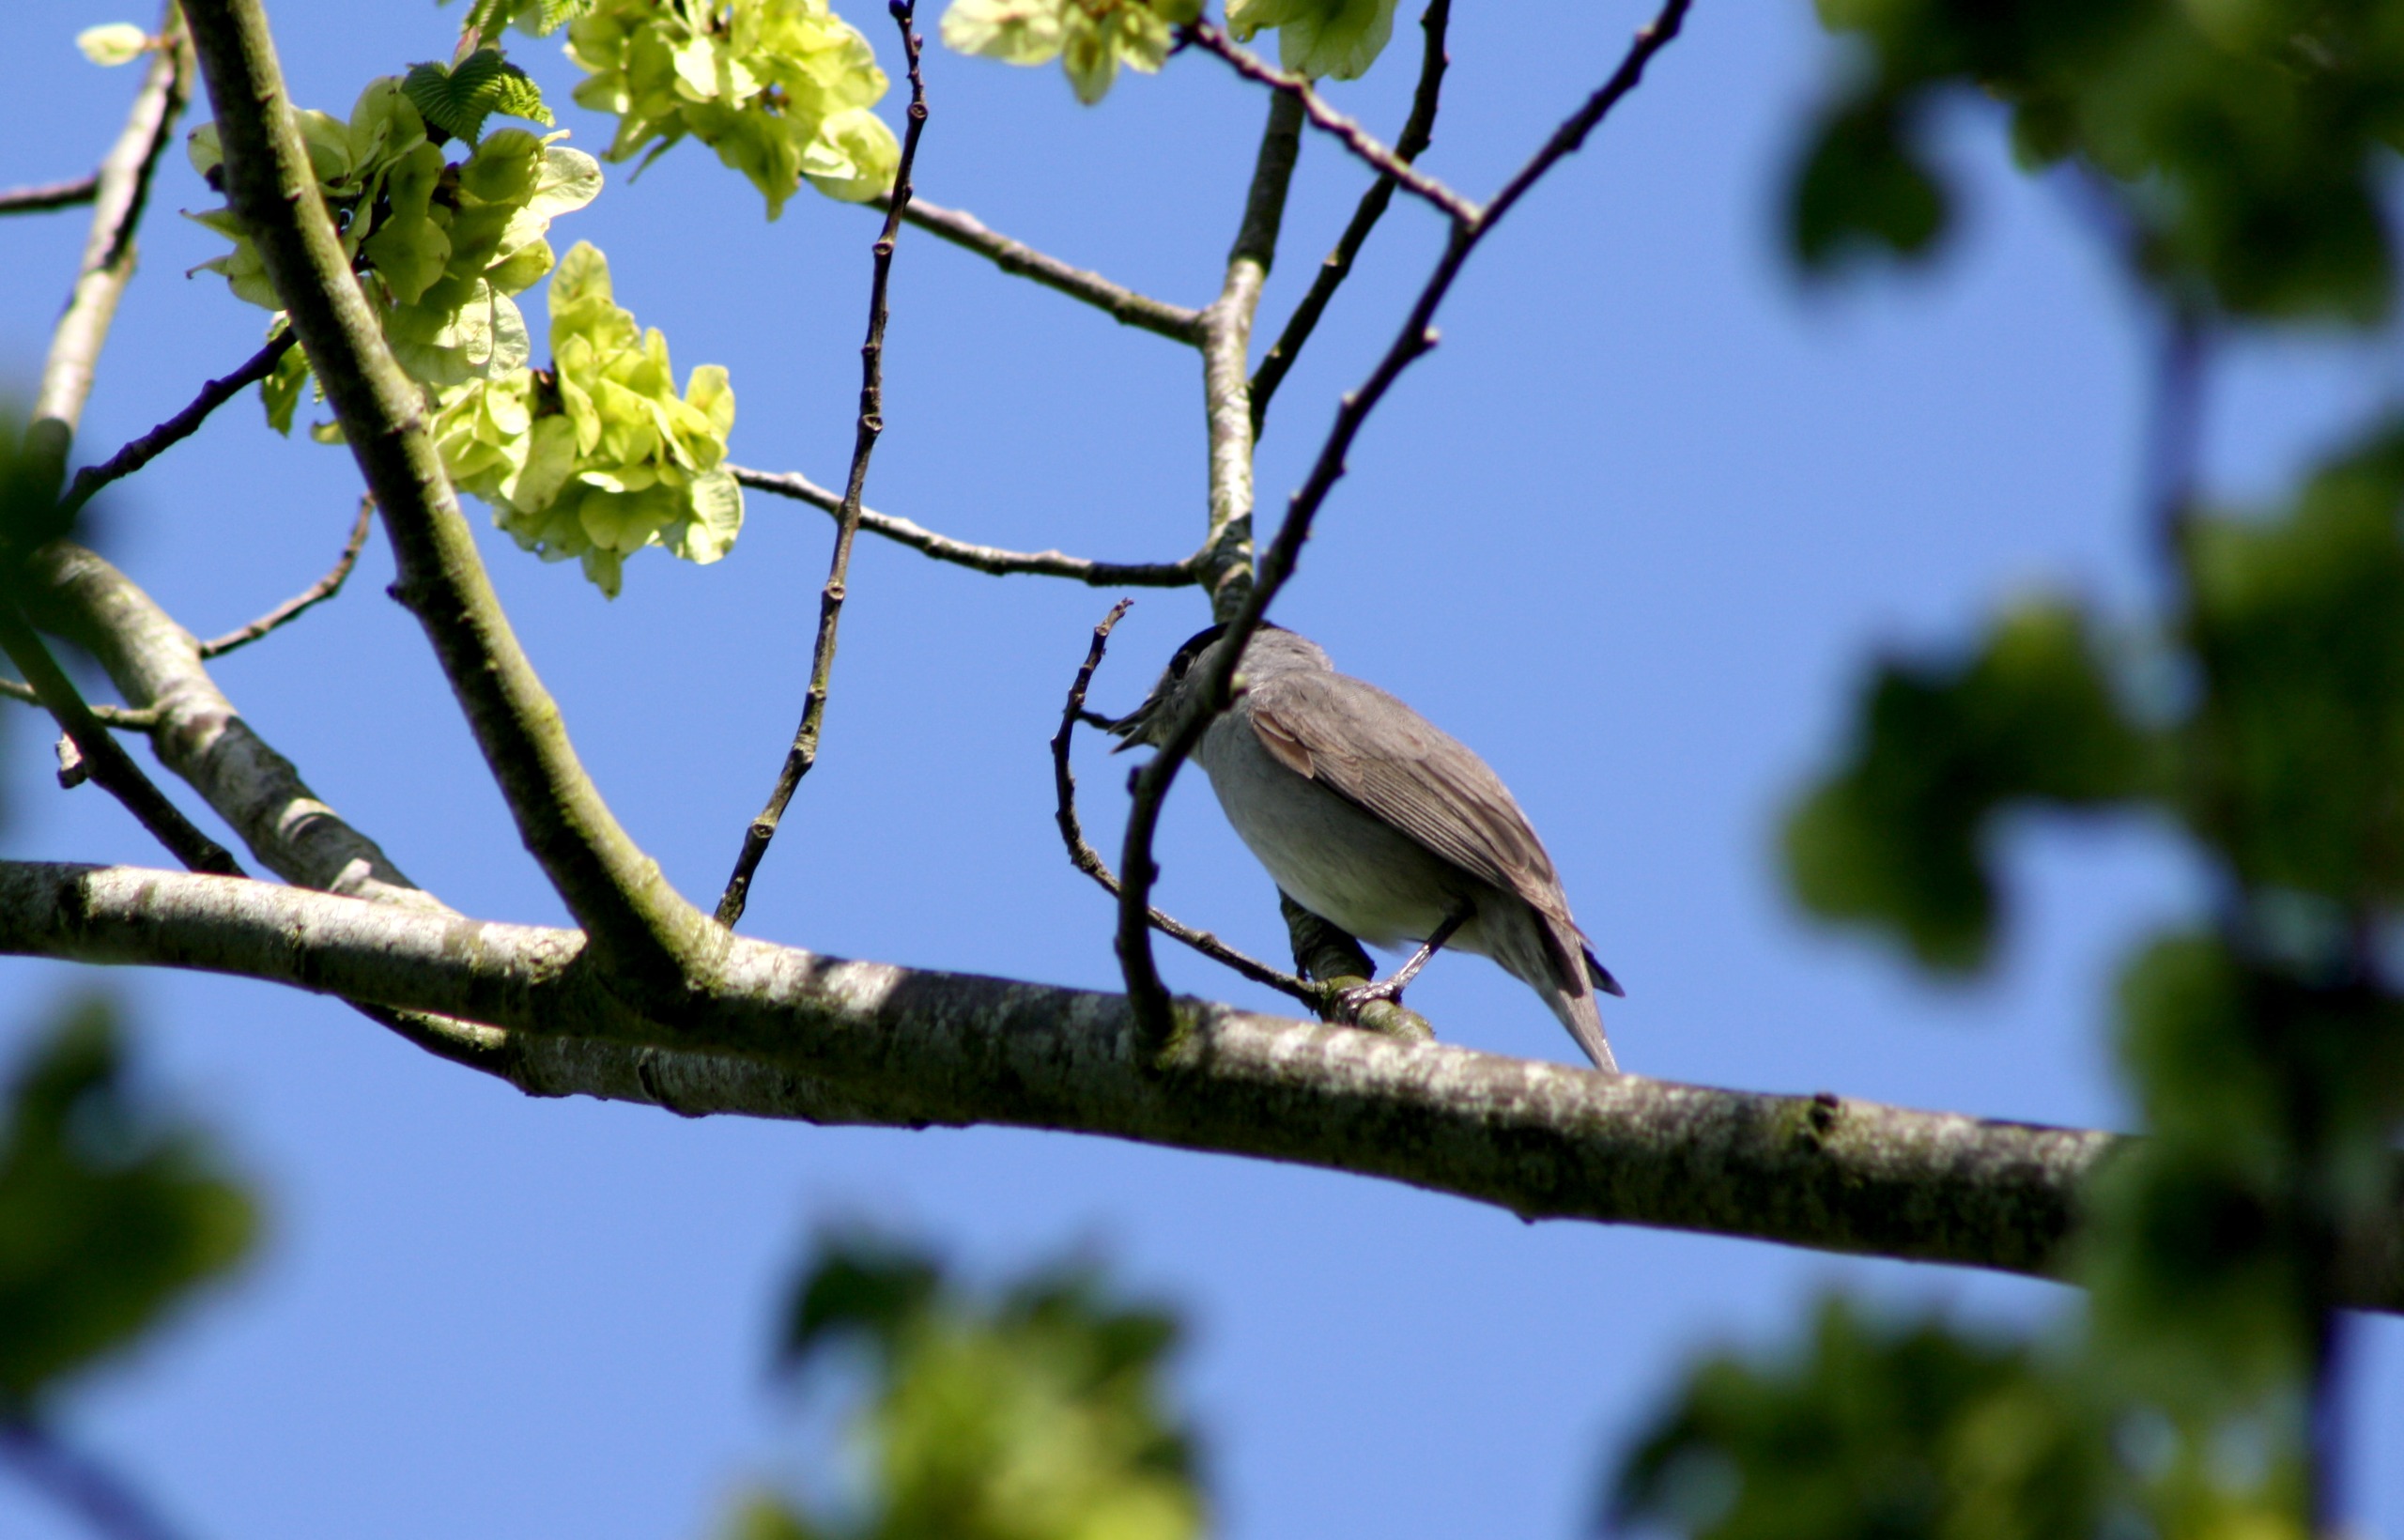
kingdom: Animalia
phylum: Chordata
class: Aves
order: Passeriformes
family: Sylviidae
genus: Sylvia
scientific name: Sylvia atricapilla
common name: Munk
